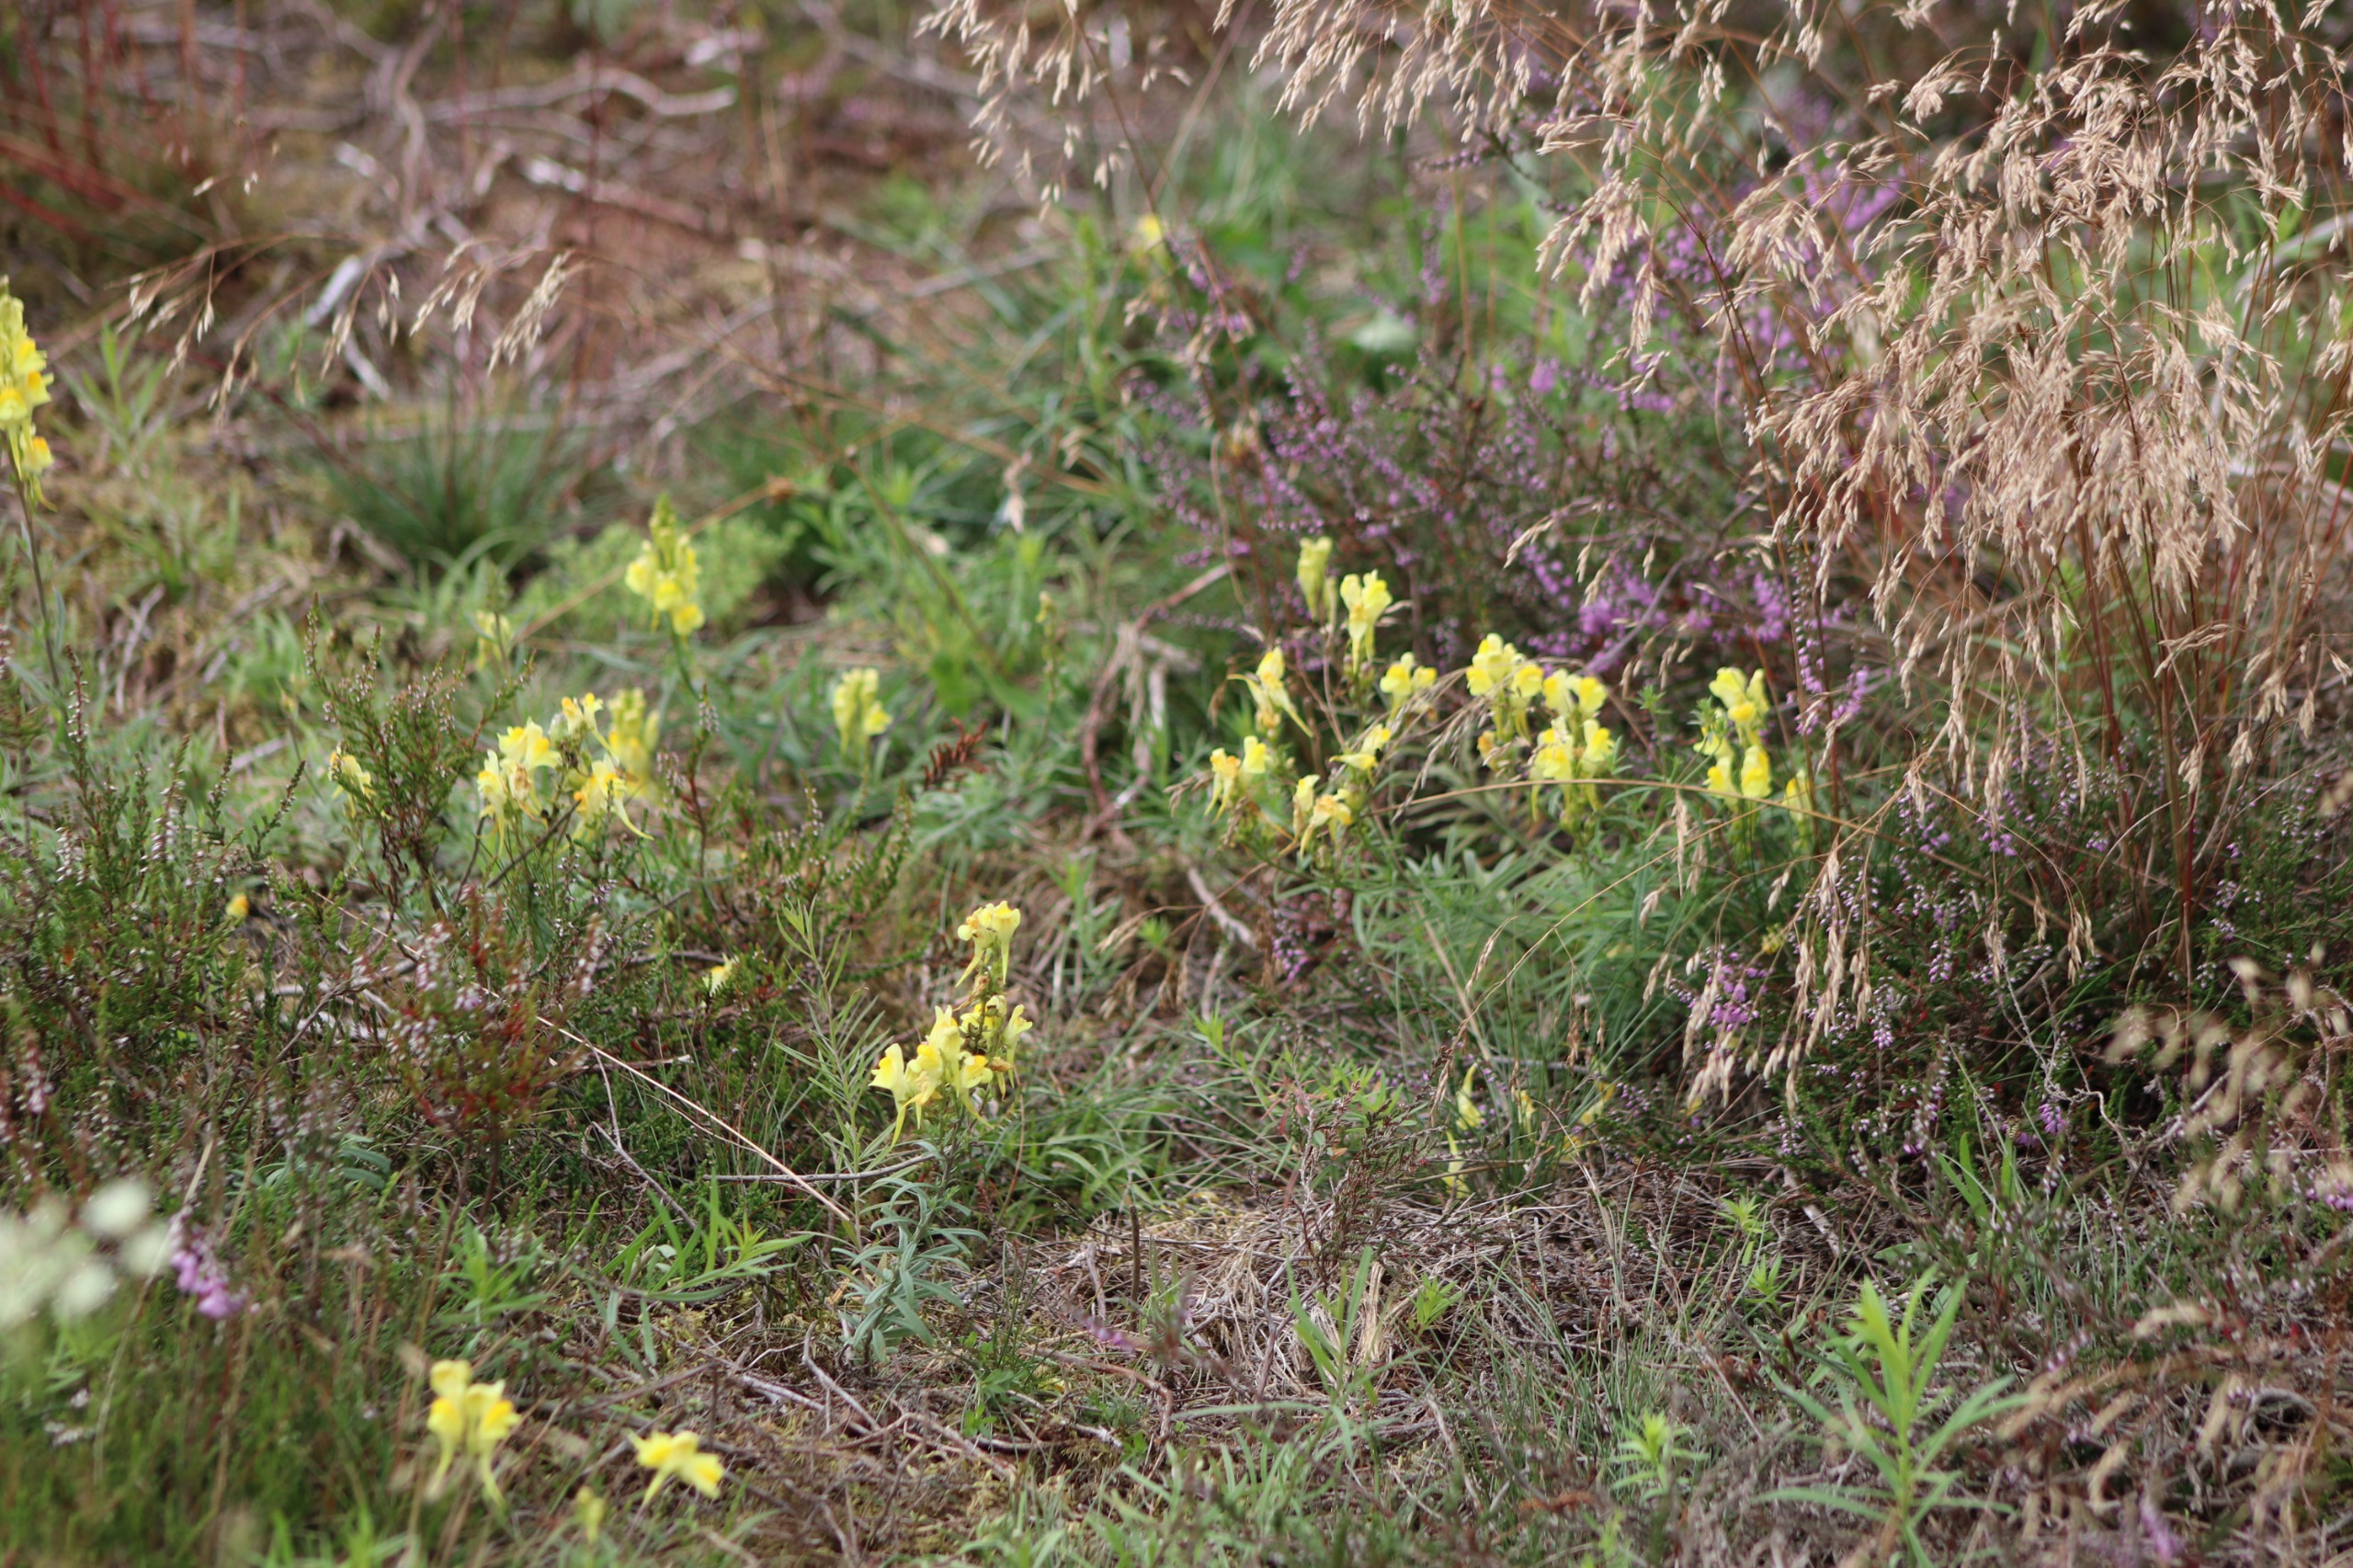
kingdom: Plantae
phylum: Tracheophyta
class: Magnoliopsida
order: Lamiales
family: Plantaginaceae
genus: Linaria
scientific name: Linaria vulgaris
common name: Almindelig torskemund
